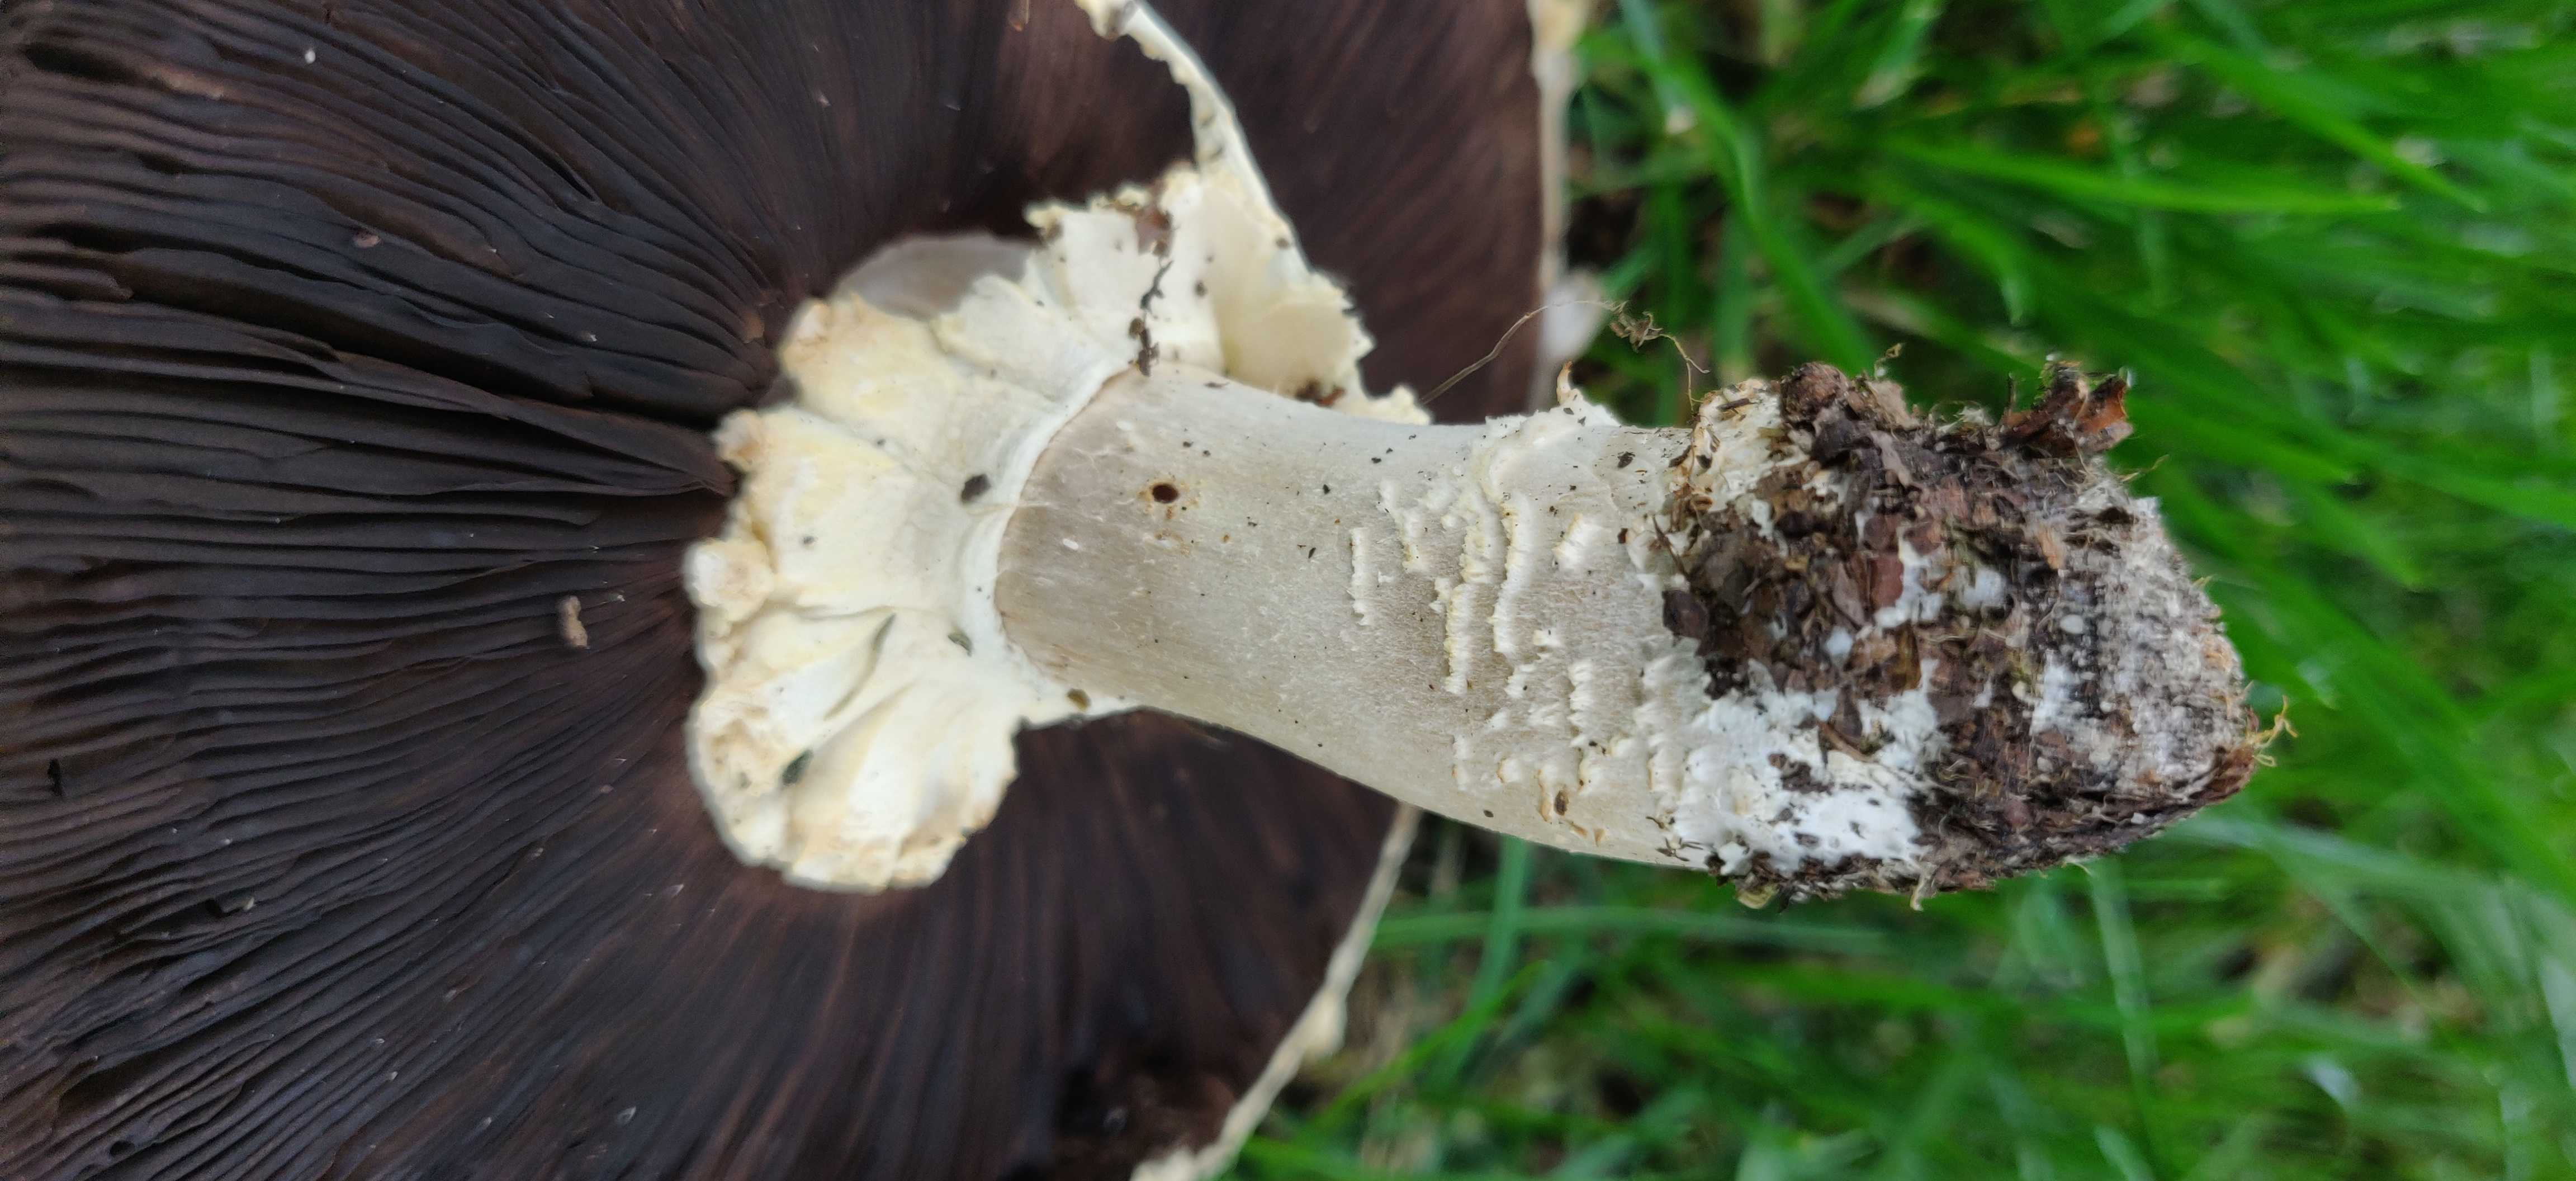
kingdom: Fungi
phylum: Basidiomycota
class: Agaricomycetes
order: Agaricales
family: Agaricaceae
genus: Agaricus
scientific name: Agaricus
